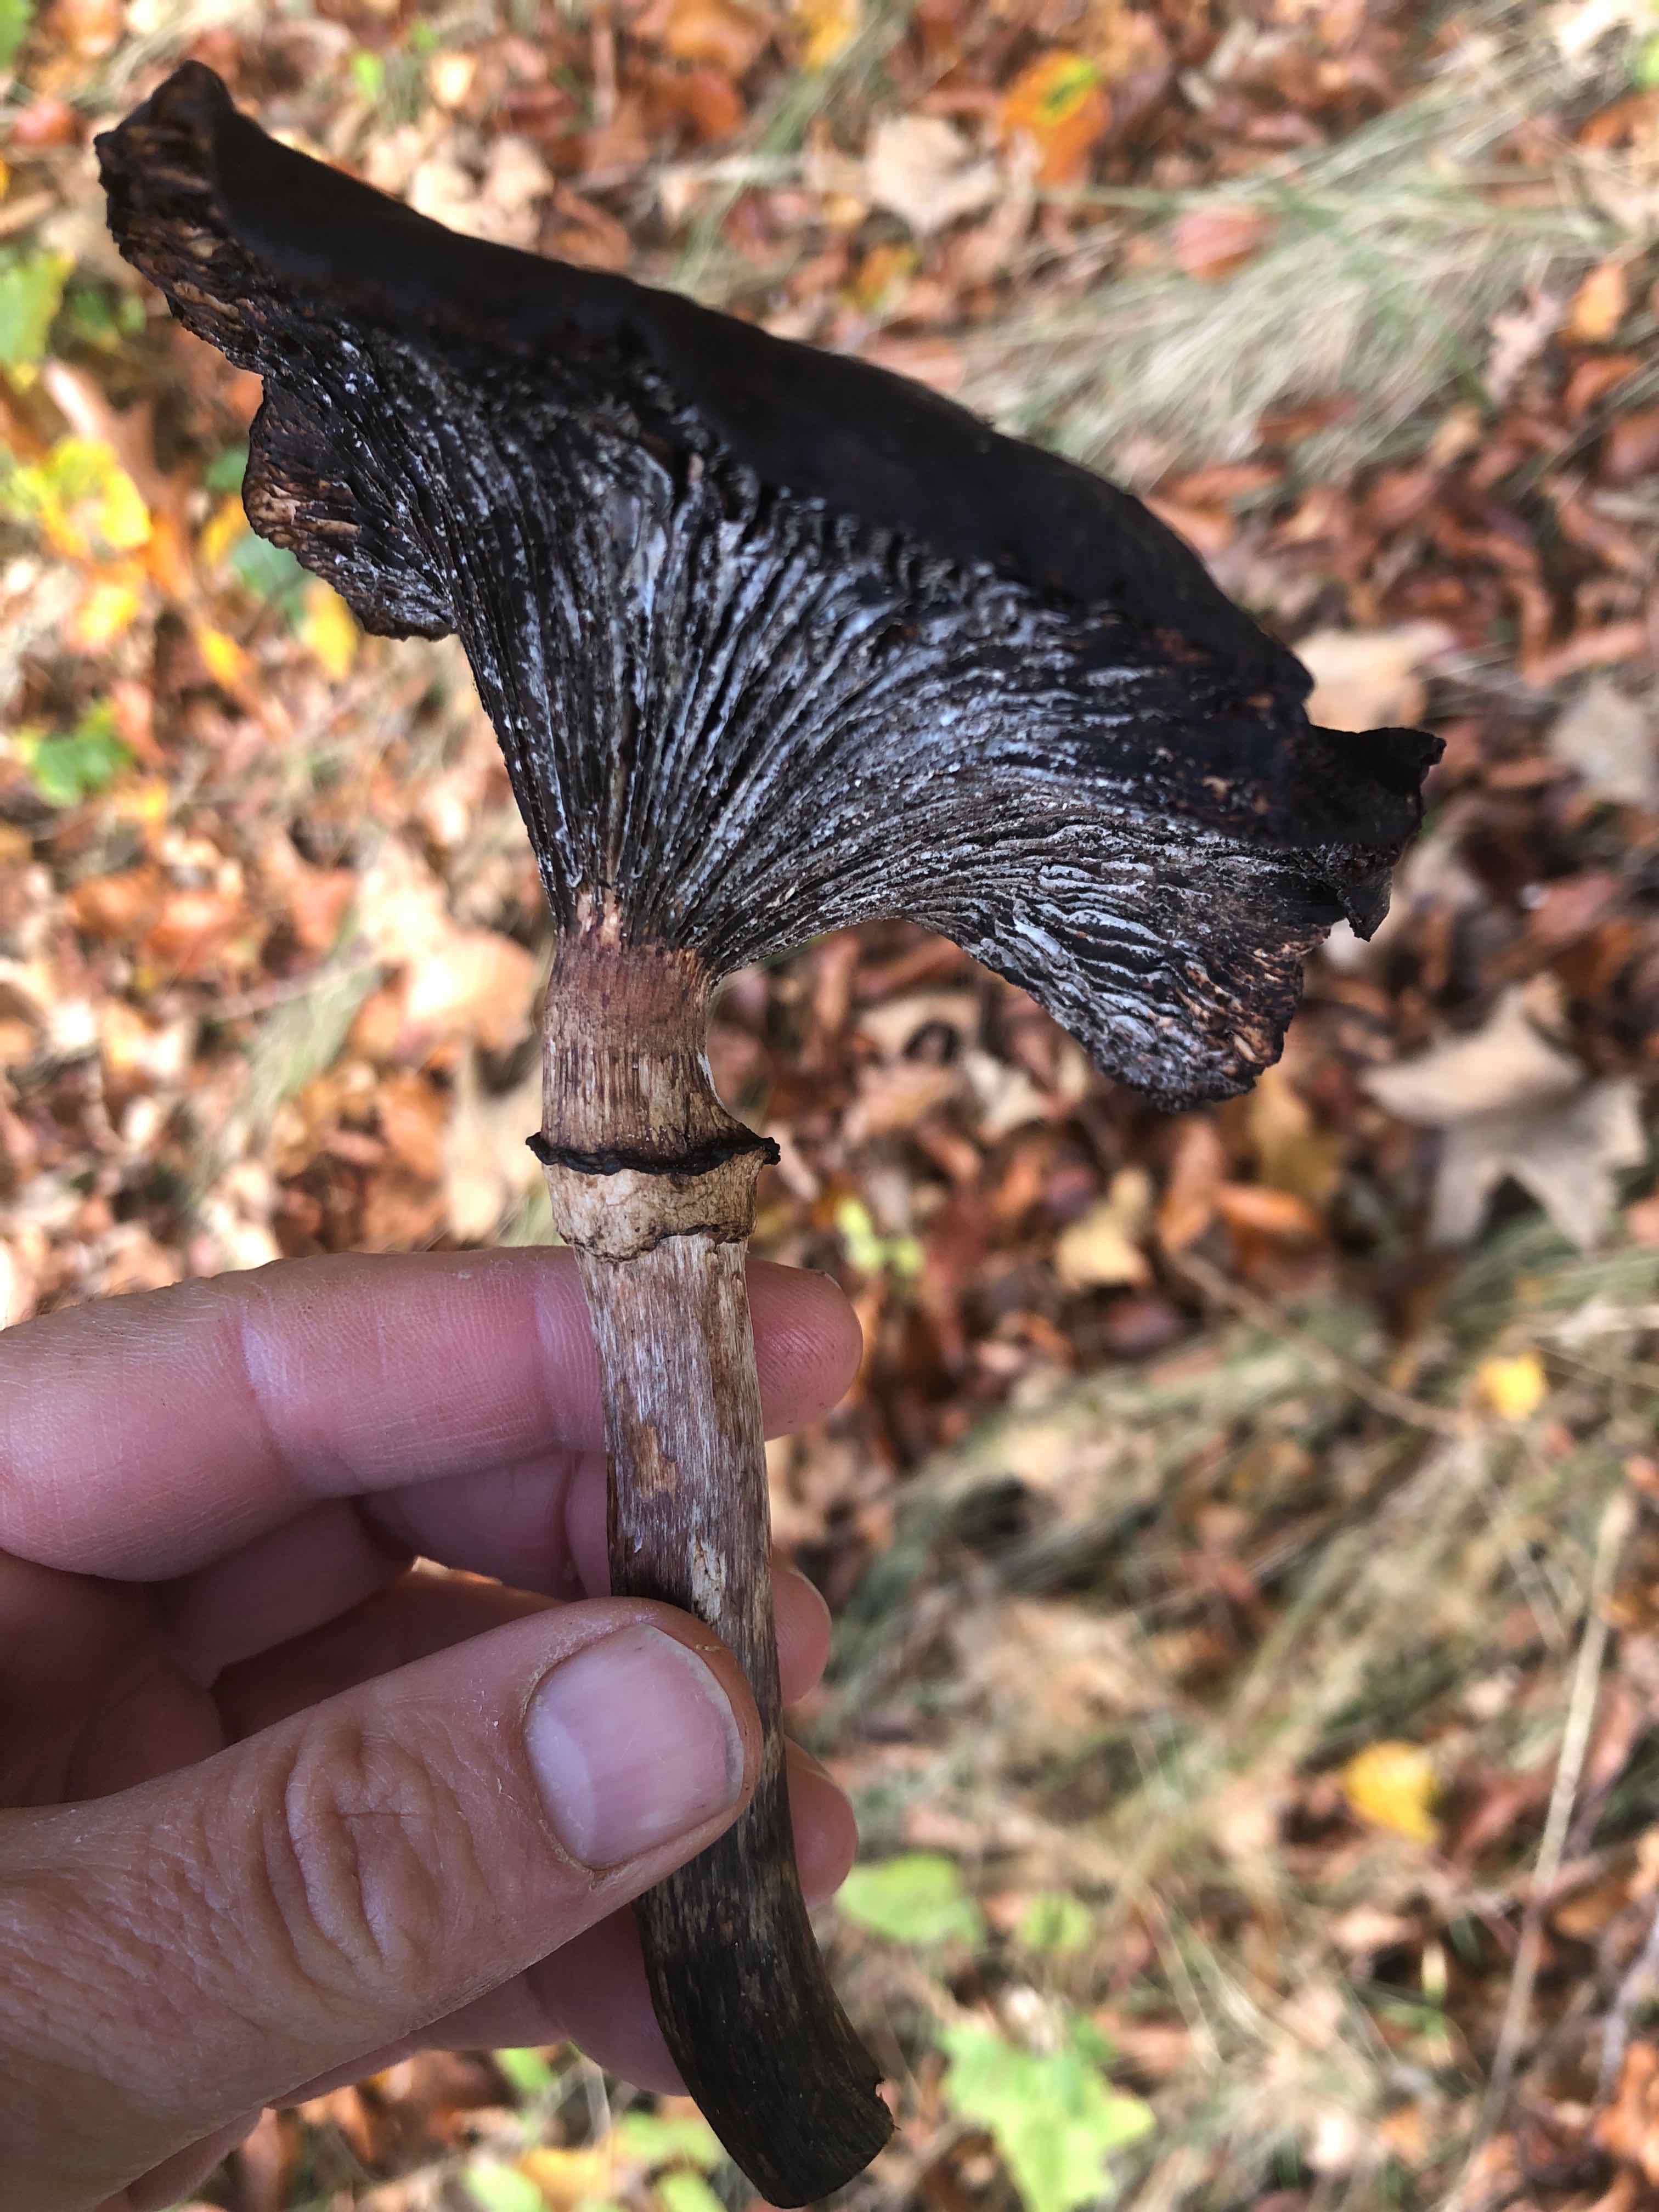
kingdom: Fungi
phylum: Basidiomycota
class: Agaricomycetes
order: Agaricales
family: Physalacriaceae
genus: Armillaria
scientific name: Armillaria
